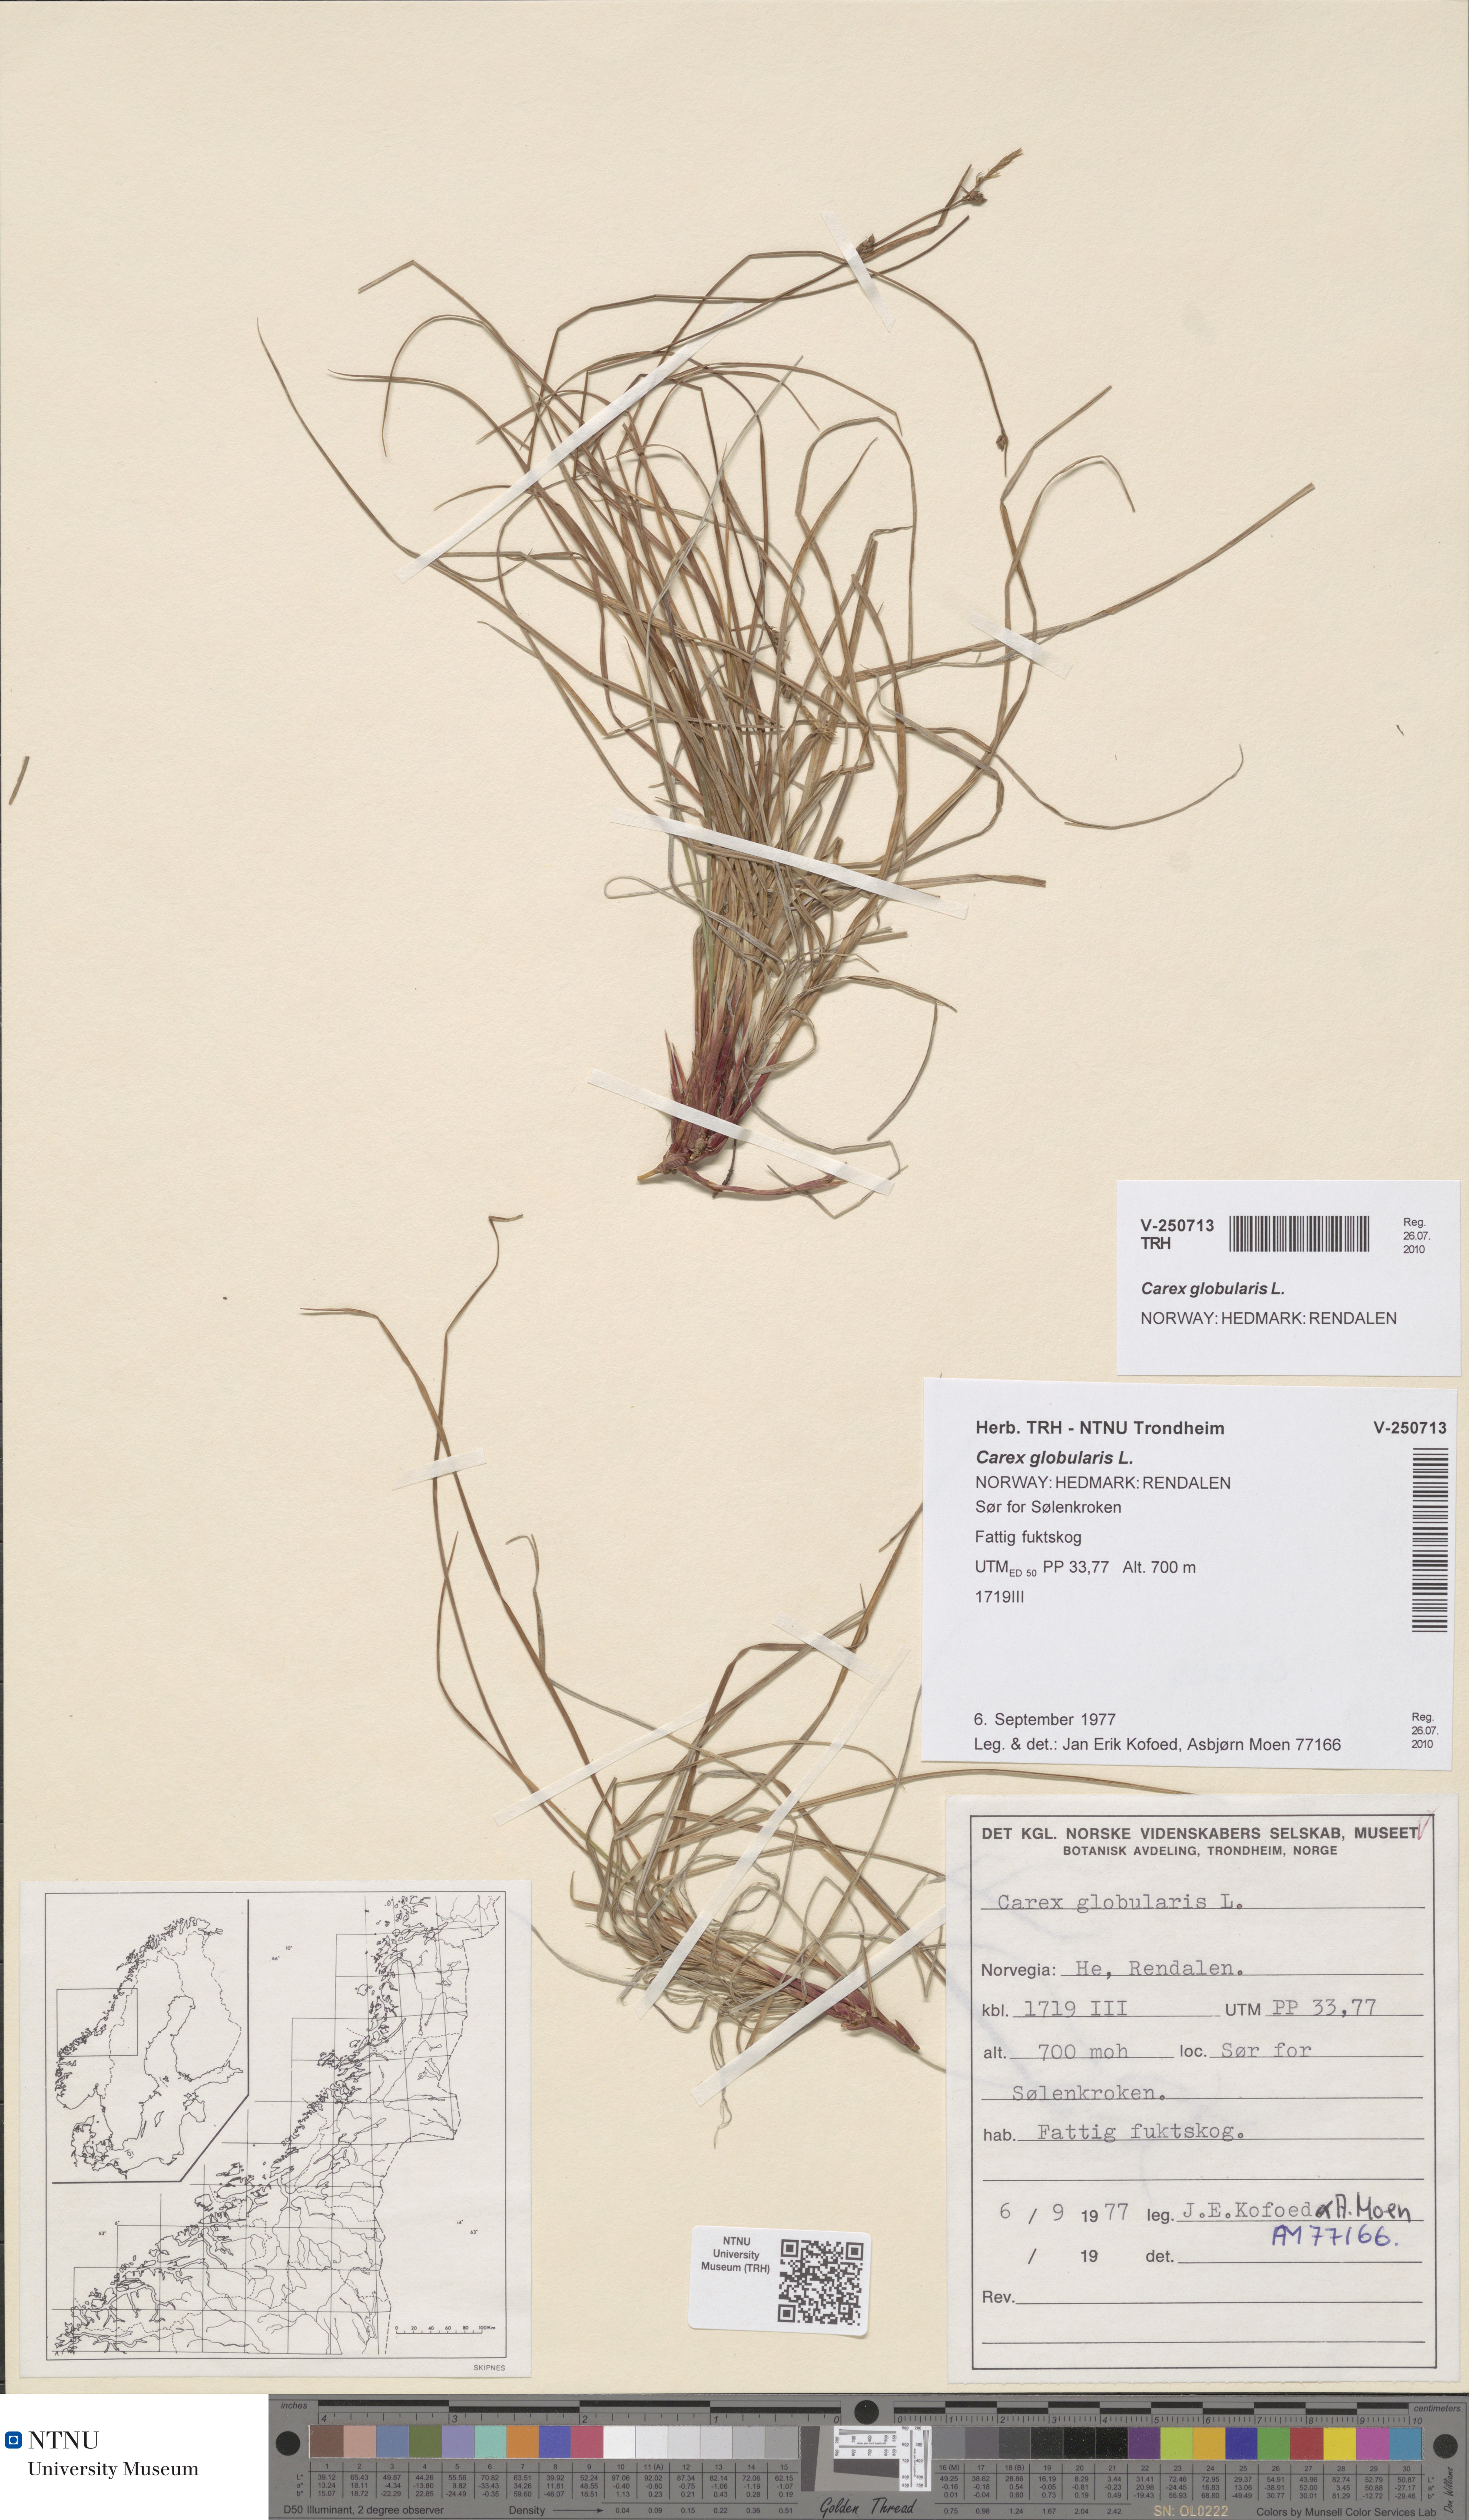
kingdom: Plantae
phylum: Tracheophyta
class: Liliopsida
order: Poales
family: Cyperaceae
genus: Carex
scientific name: Carex globularis
